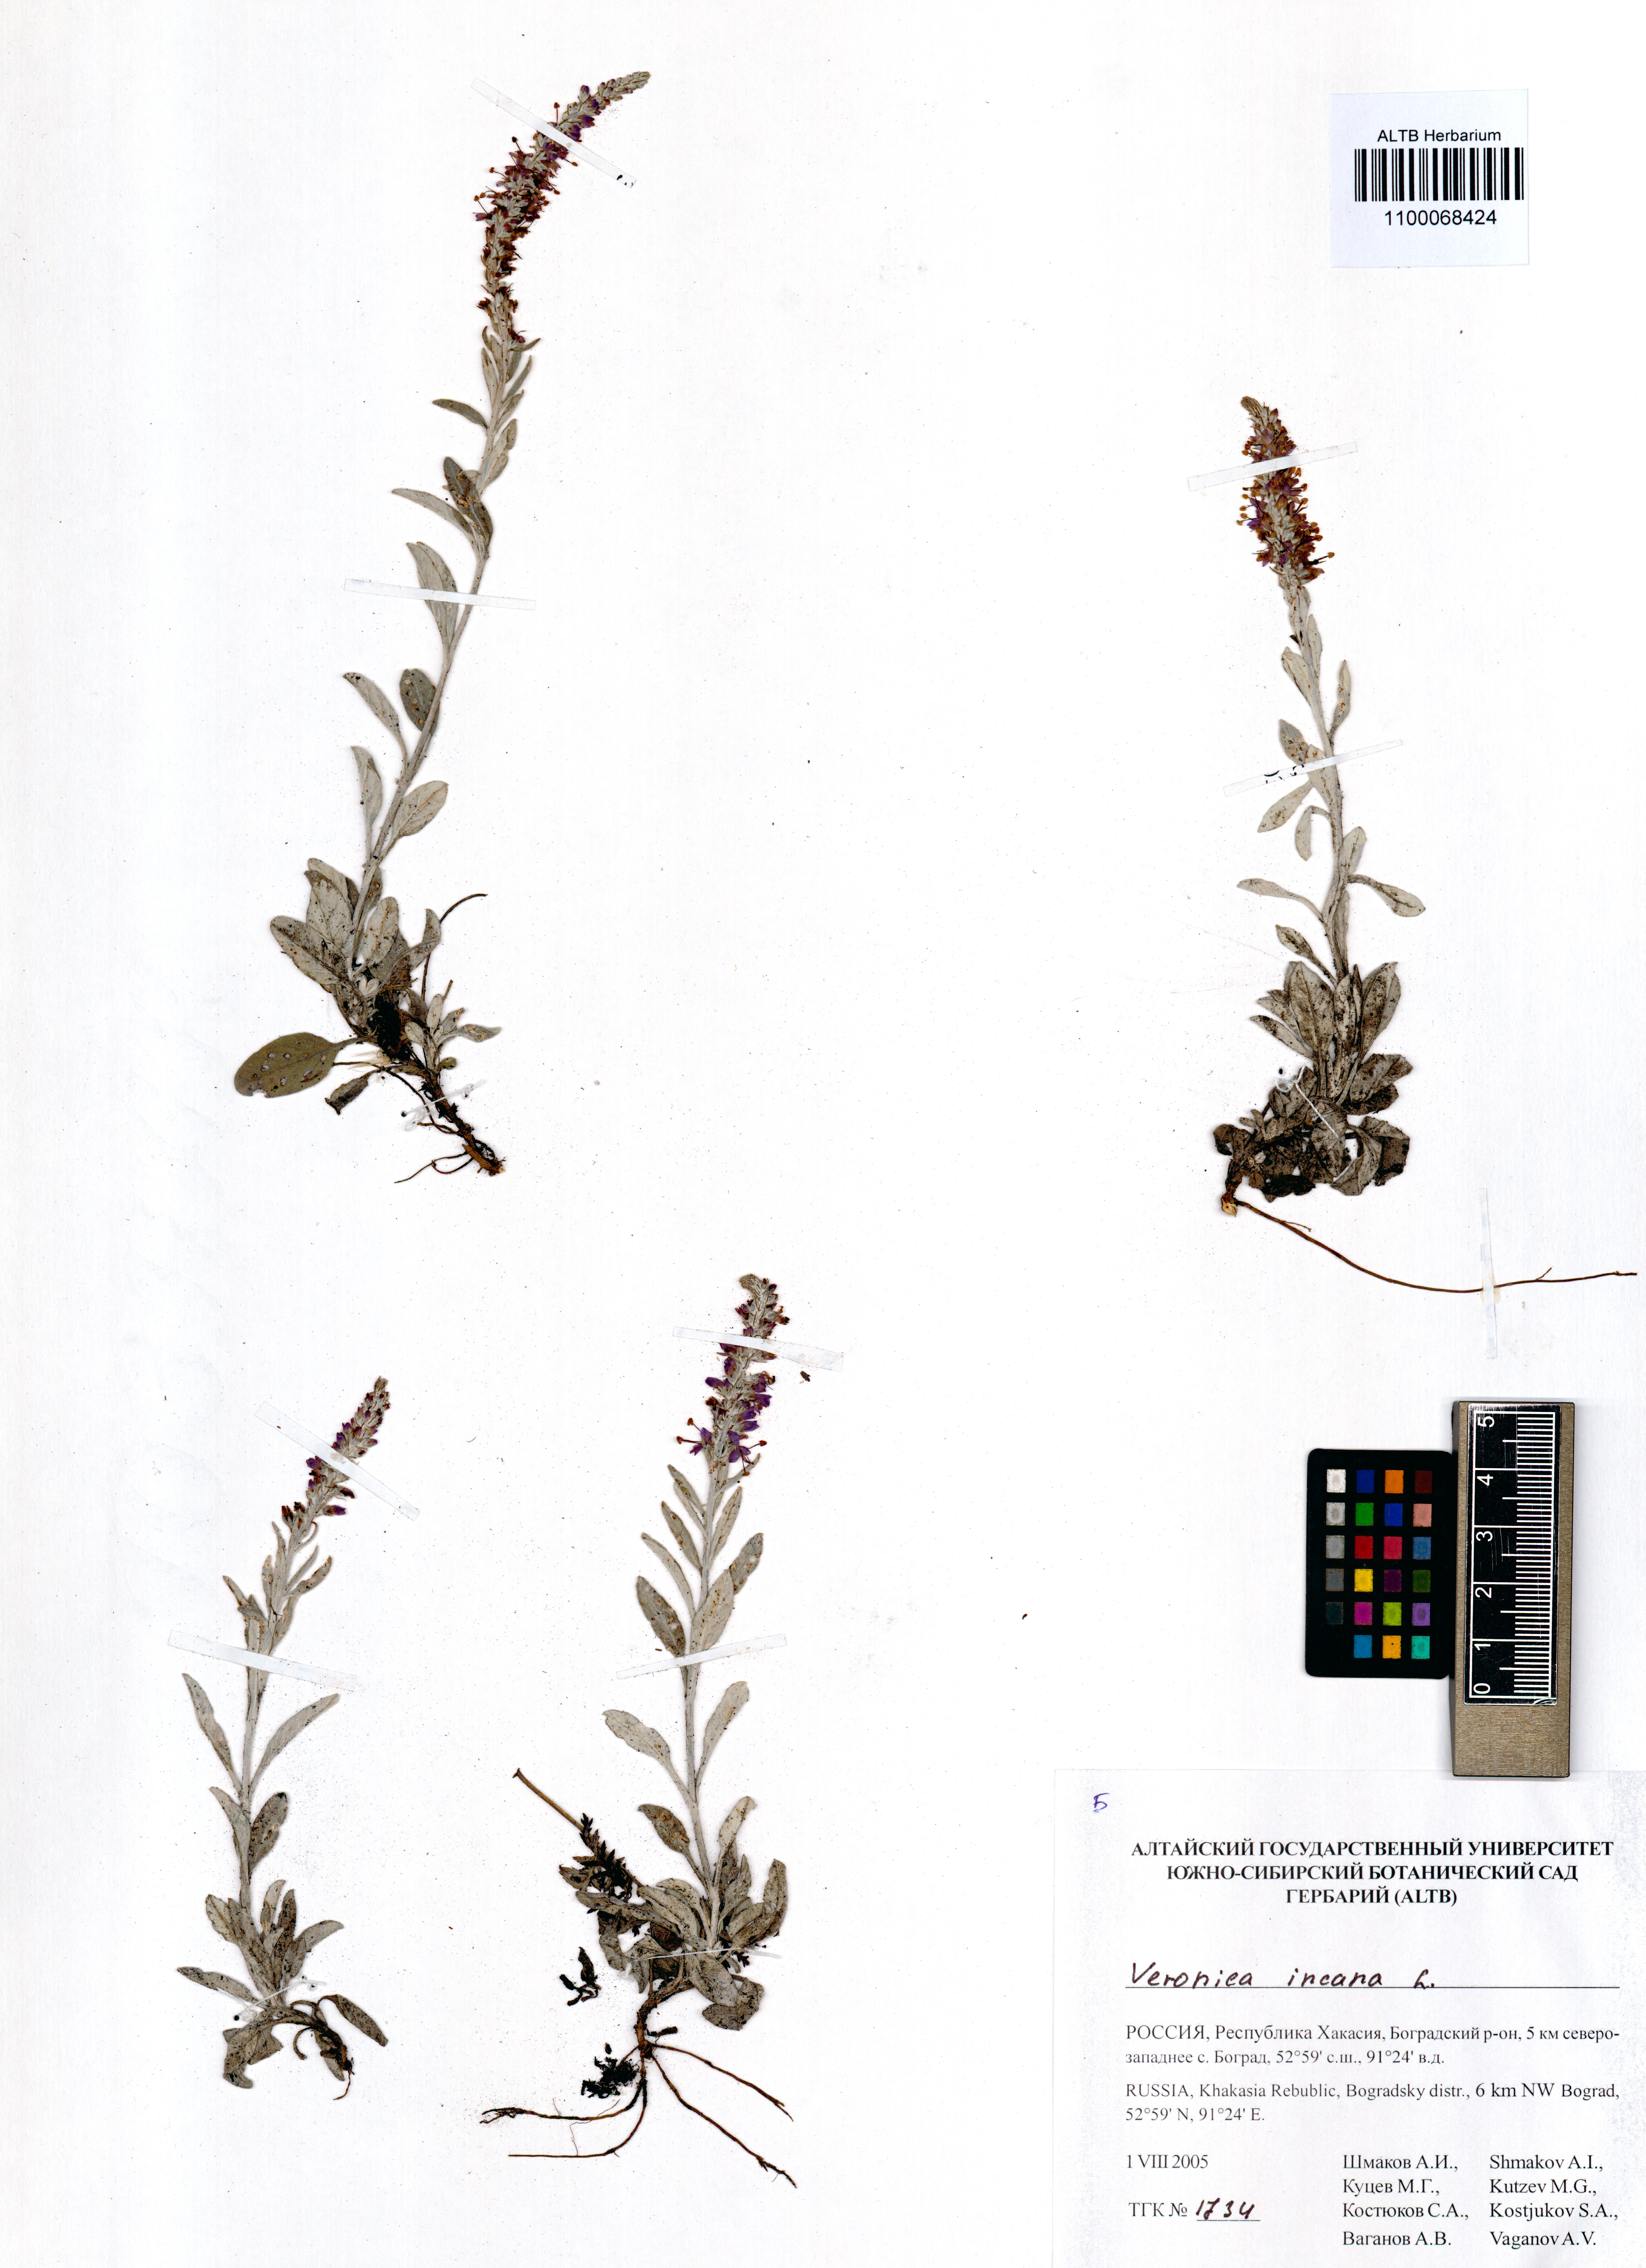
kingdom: Plantae
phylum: Tracheophyta
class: Magnoliopsida
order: Lamiales
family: Plantaginaceae
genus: Veronica
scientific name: Veronica incana
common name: Silver speedwell
